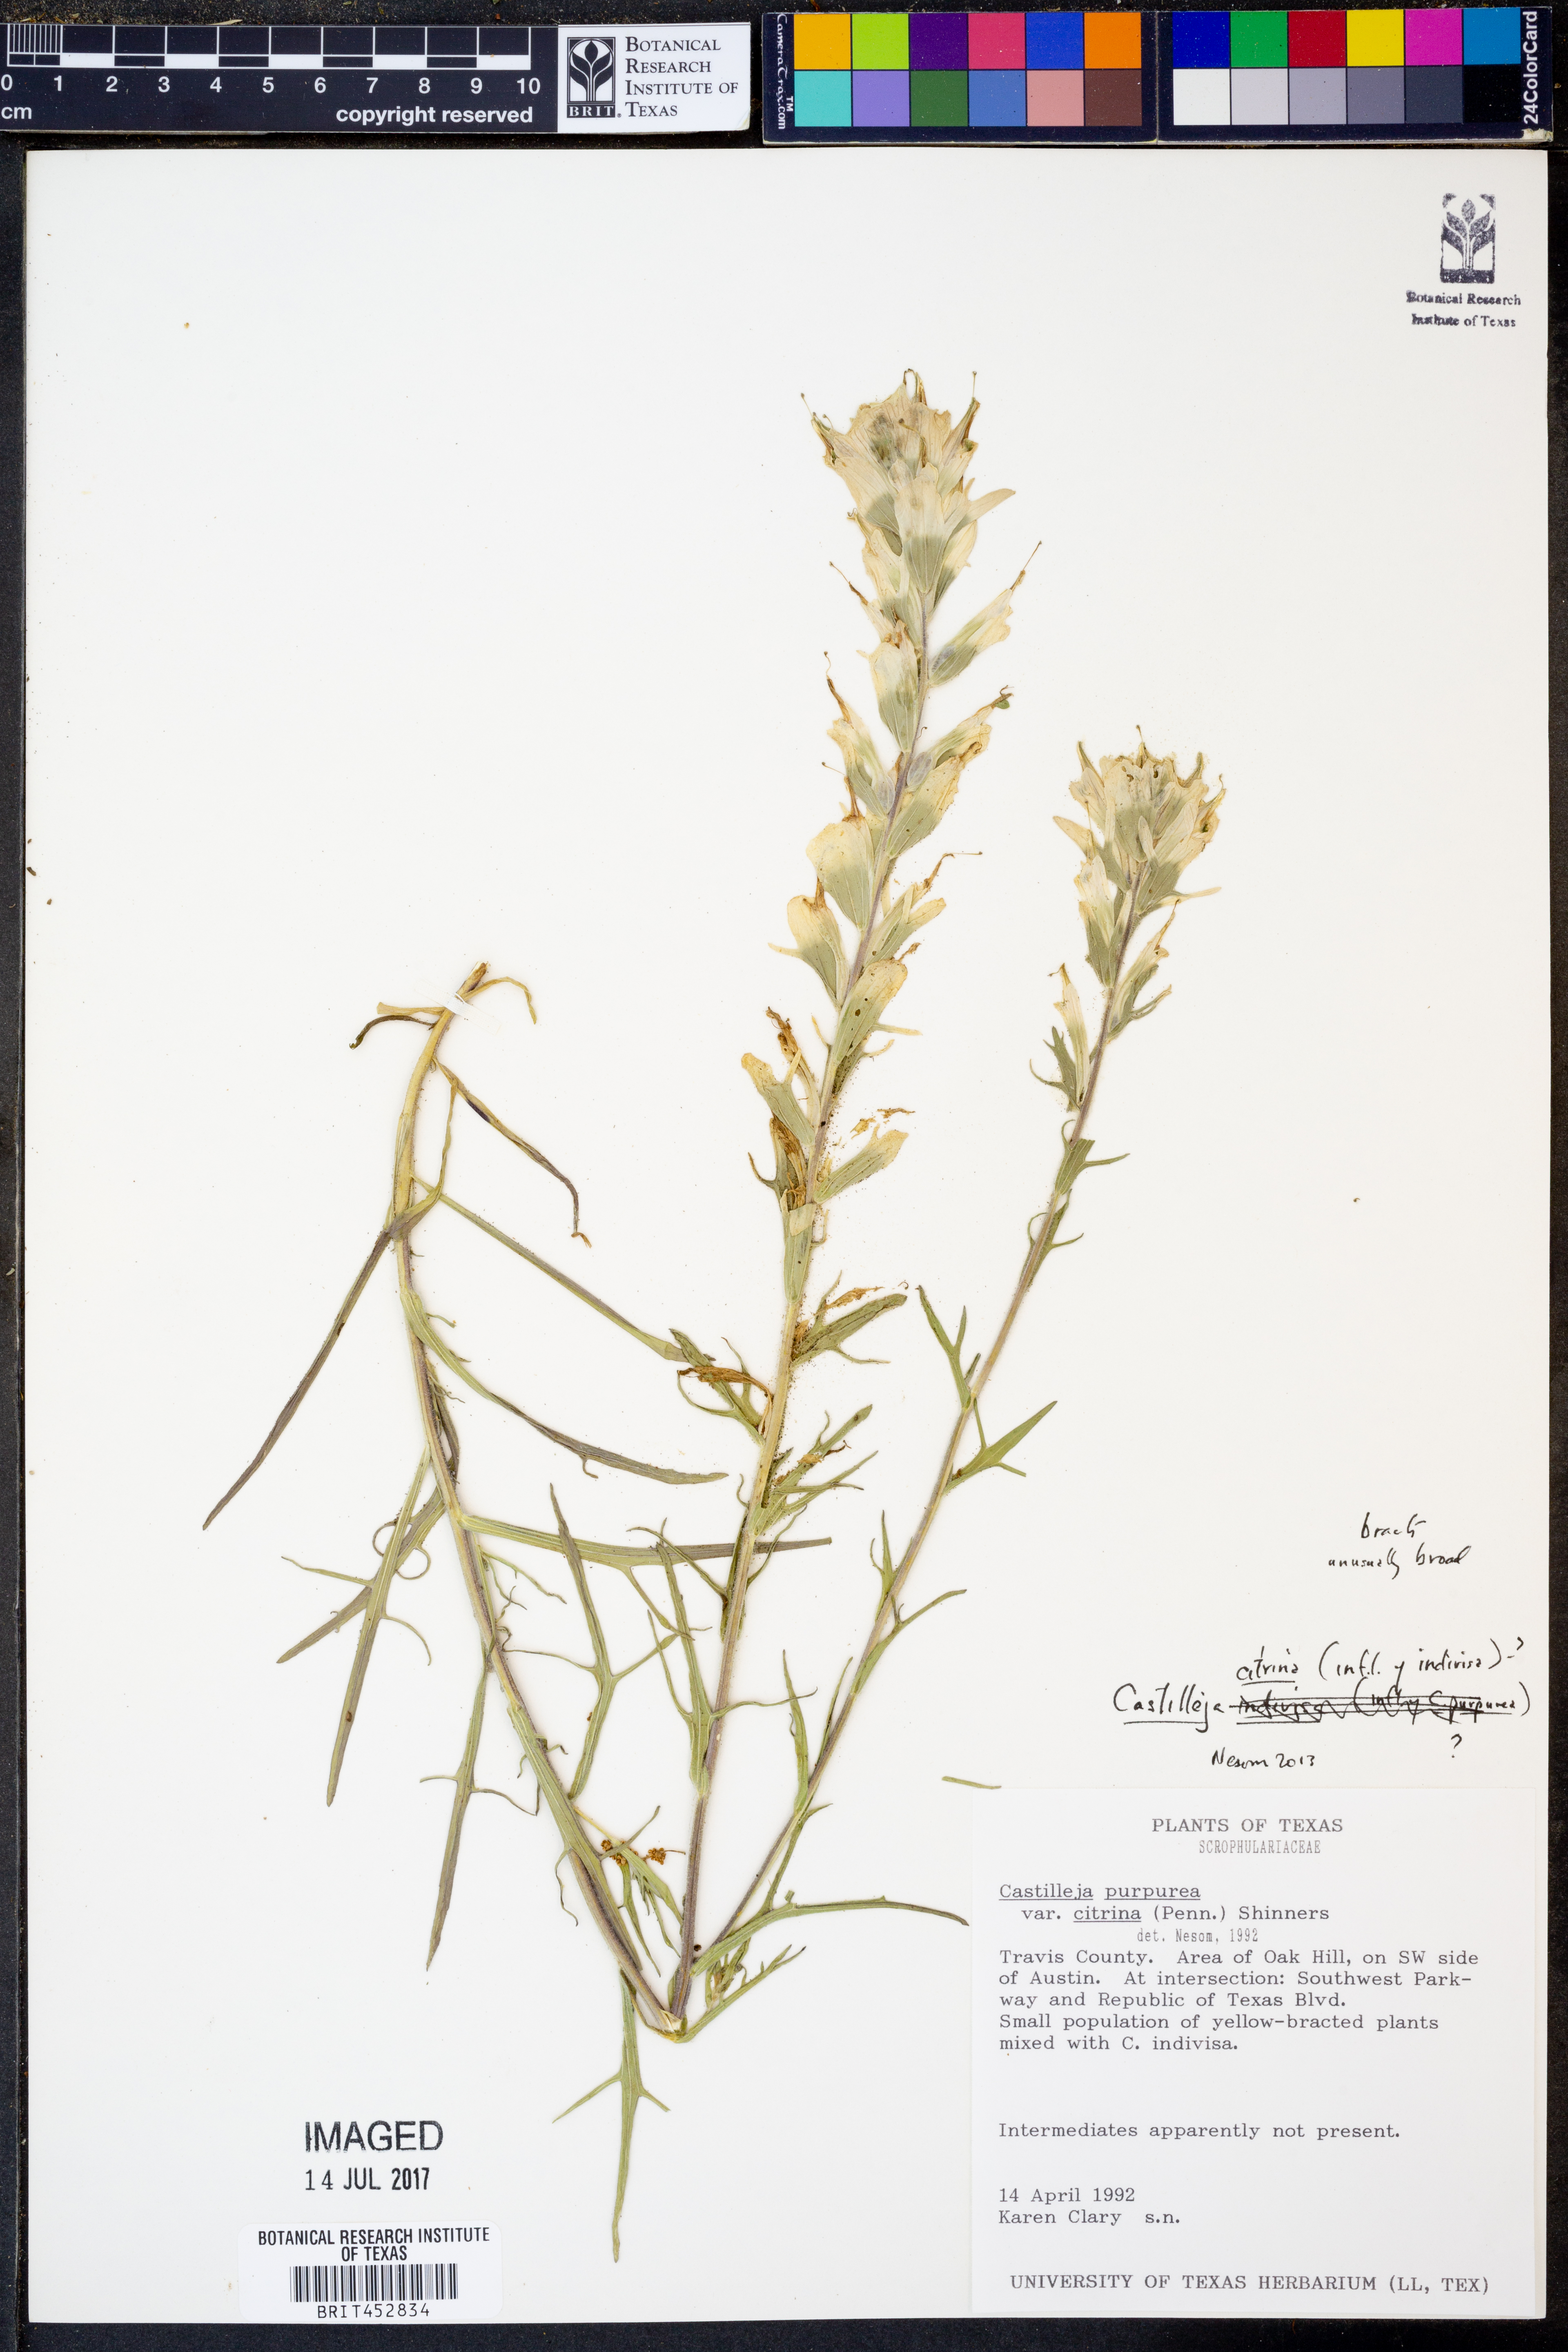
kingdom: Plantae
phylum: Tracheophyta
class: Magnoliopsida
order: Lamiales
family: Orobanchaceae
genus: Castilleja
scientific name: Castilleja citrina
